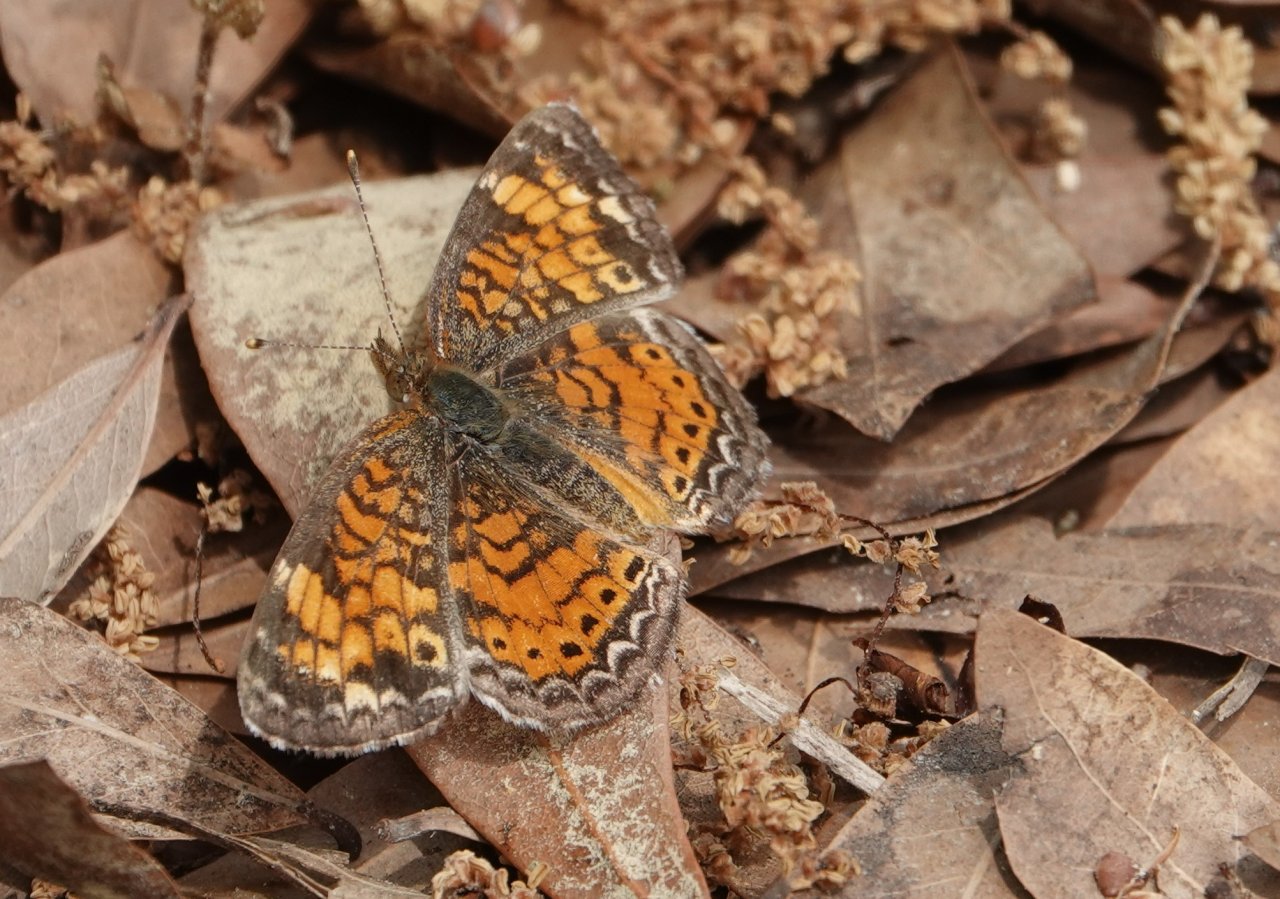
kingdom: Animalia
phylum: Arthropoda
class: Insecta
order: Lepidoptera
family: Nymphalidae
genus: Phyciodes
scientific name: Phyciodes tharos
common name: Pearl Crescent
